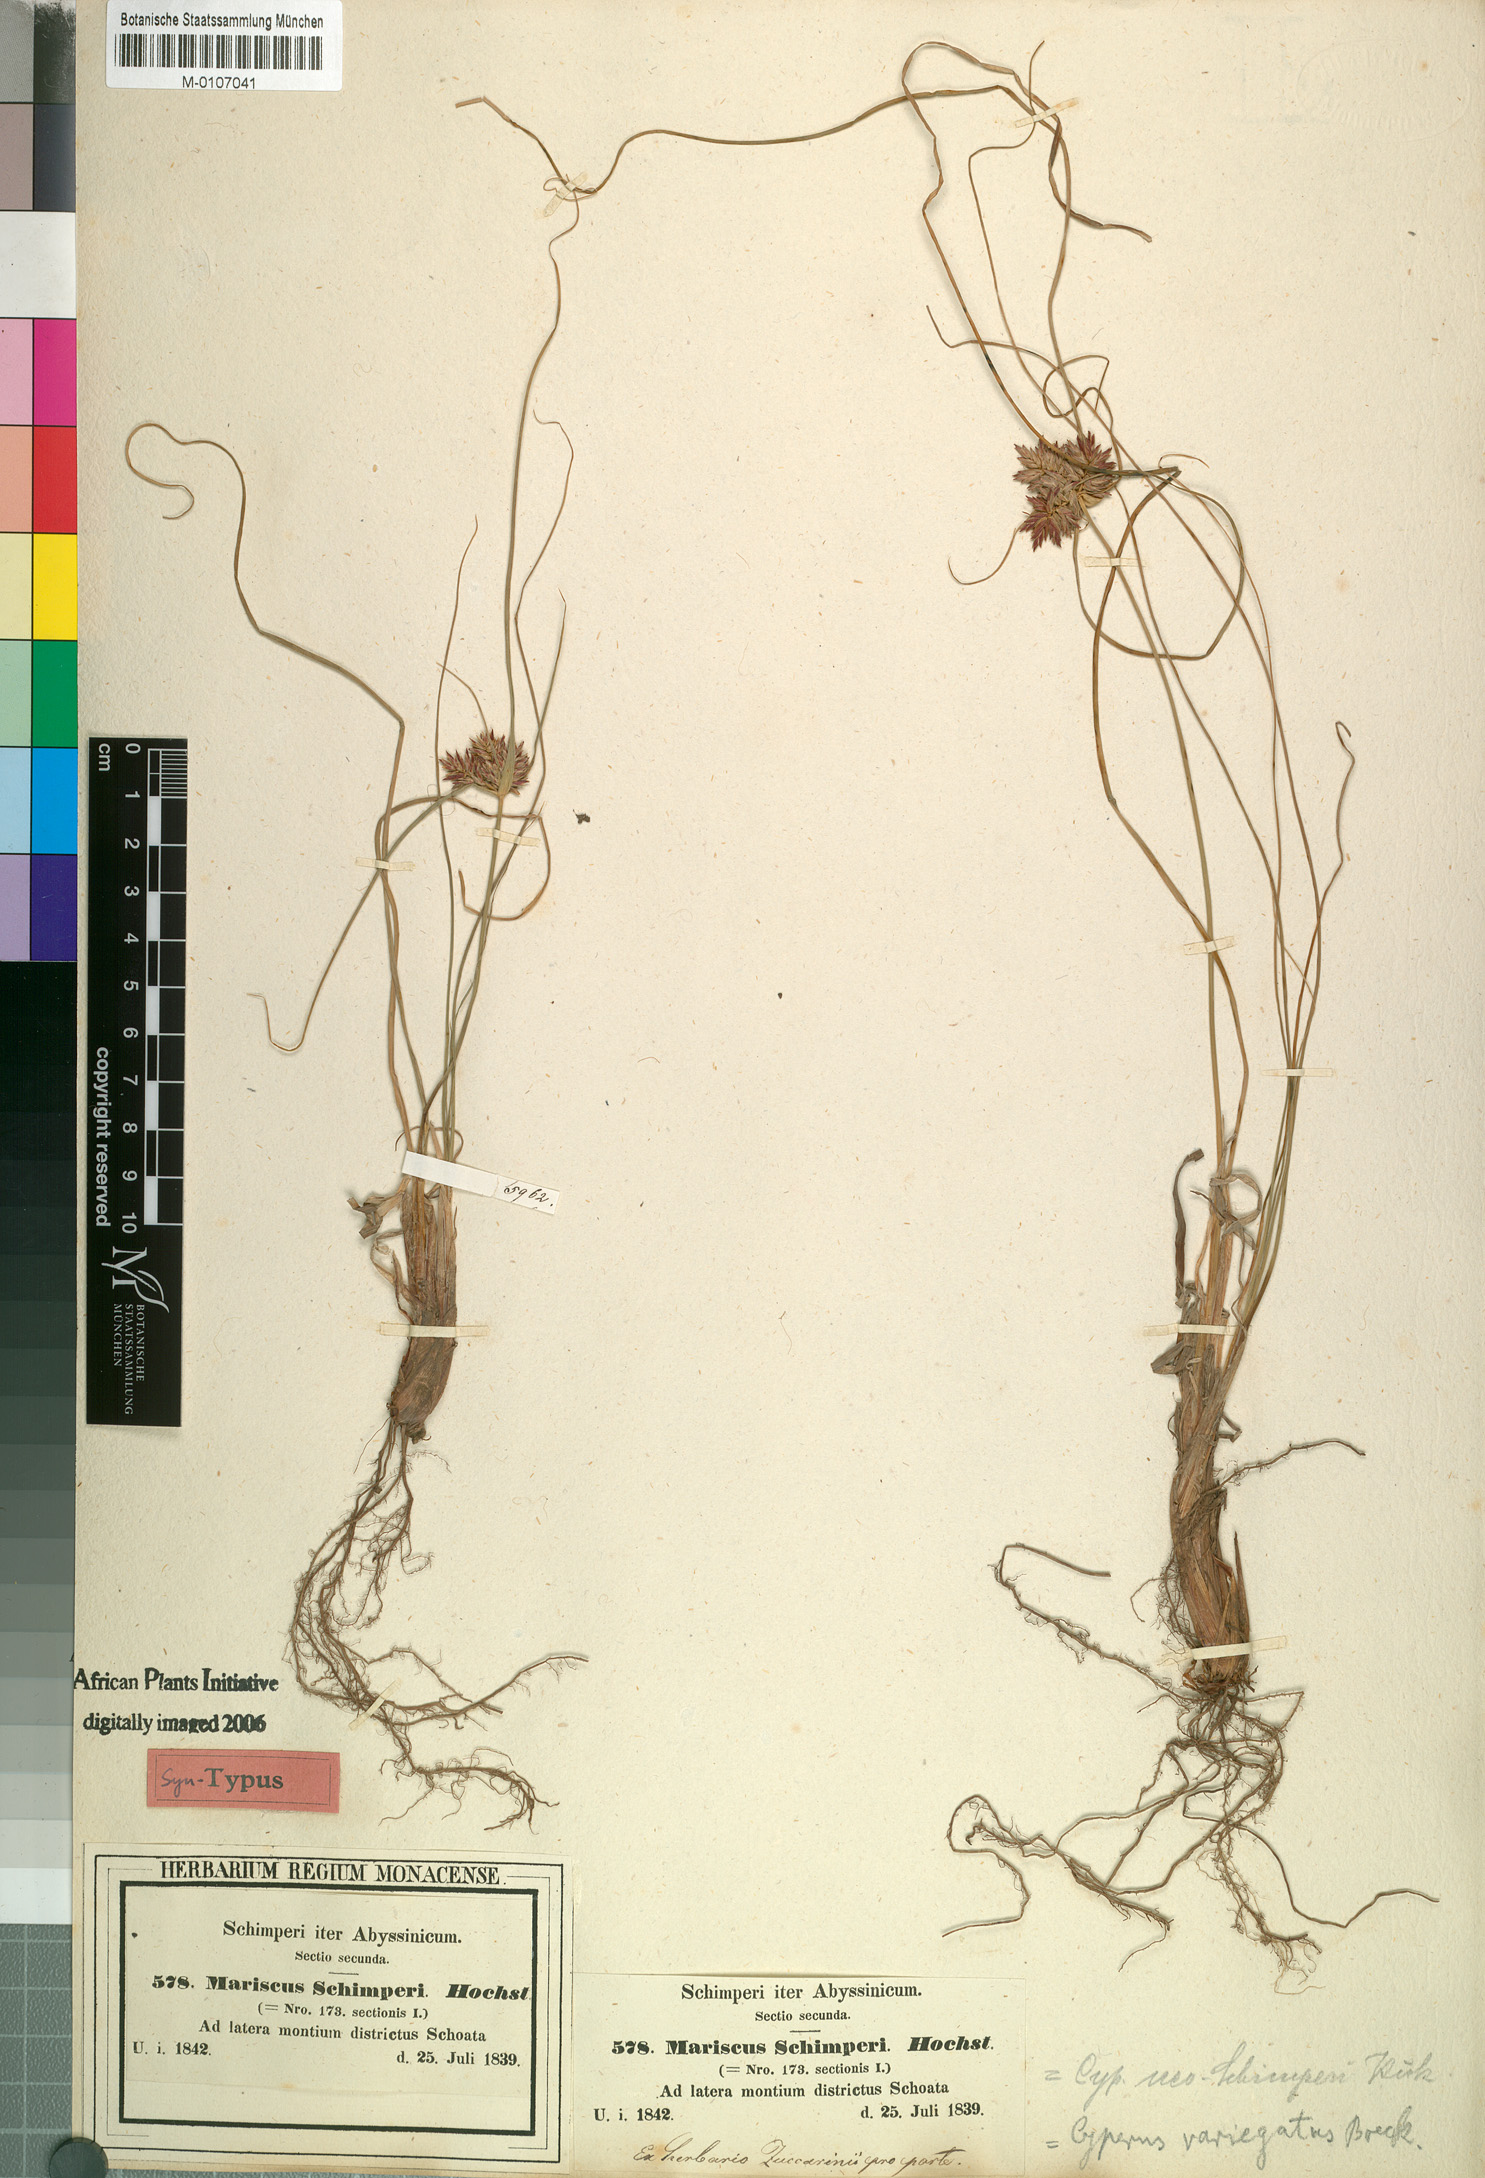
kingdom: Plantae
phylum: Tracheophyta
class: Liliopsida
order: Poales
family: Cyperaceae
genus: Cyperus
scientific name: Cyperus cruentus
